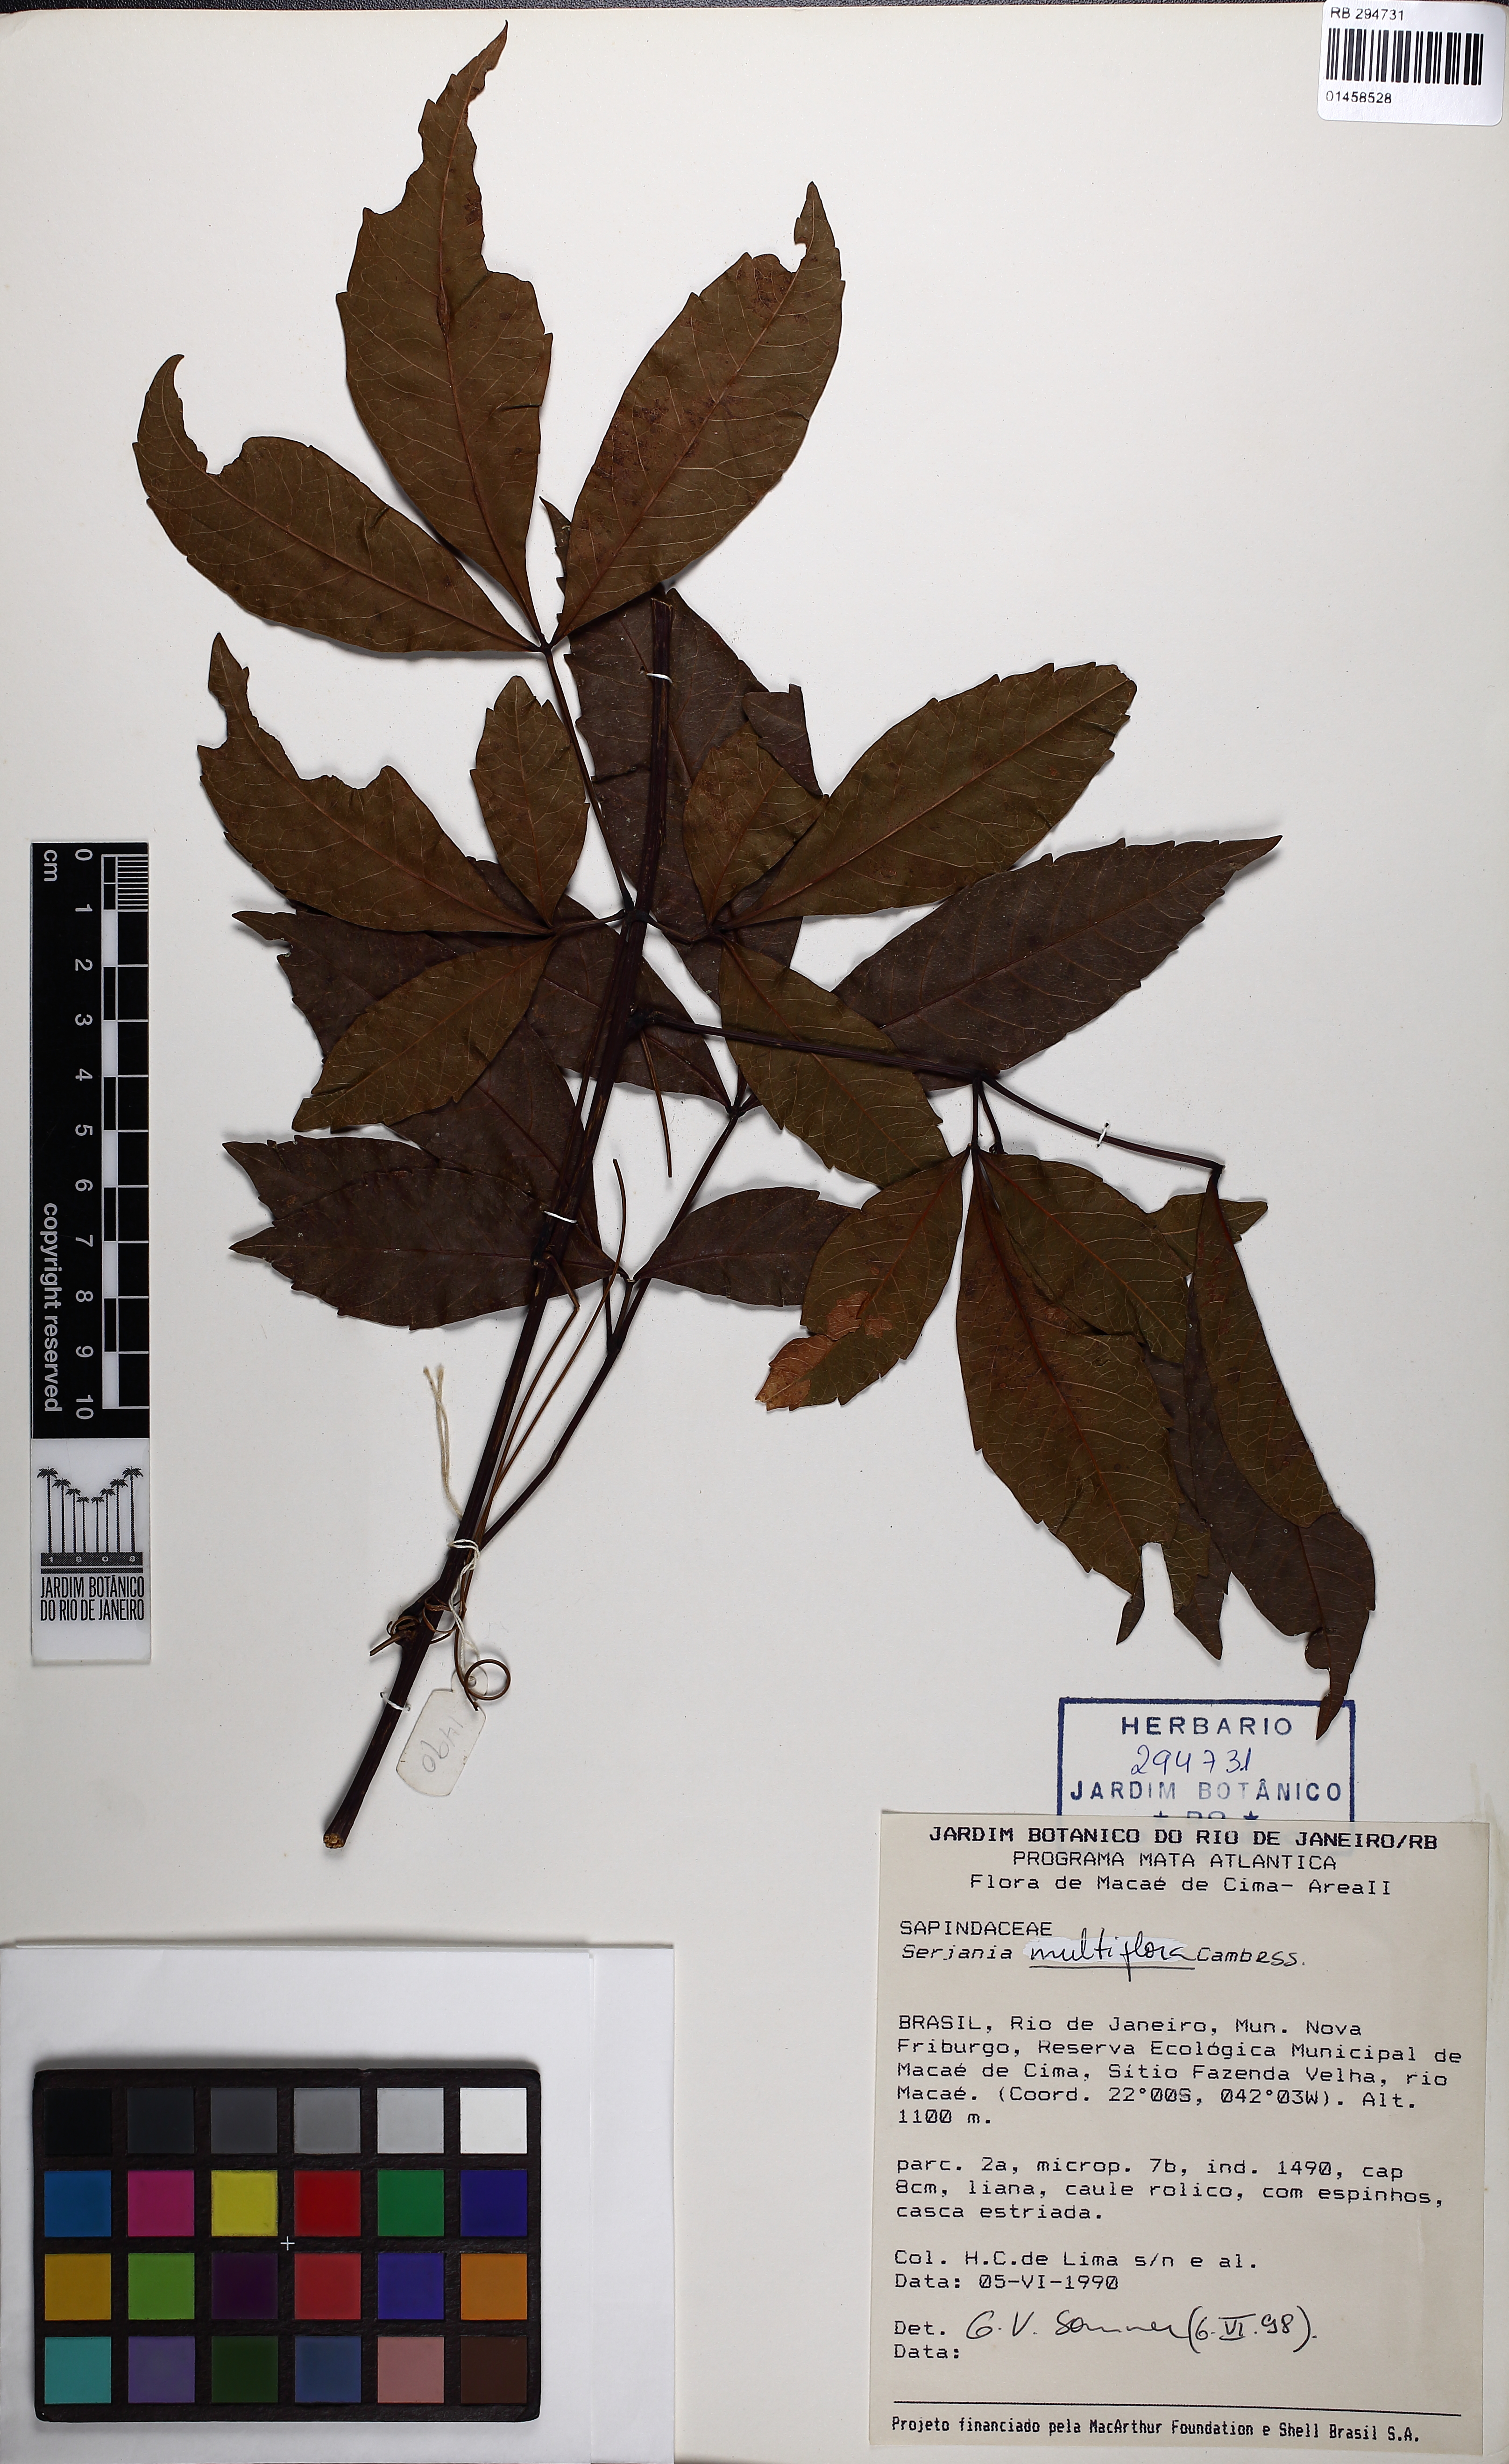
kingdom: Plantae
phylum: Tracheophyta
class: Magnoliopsida
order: Sapindales
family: Sapindaceae
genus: Serjania
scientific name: Serjania multiflora
